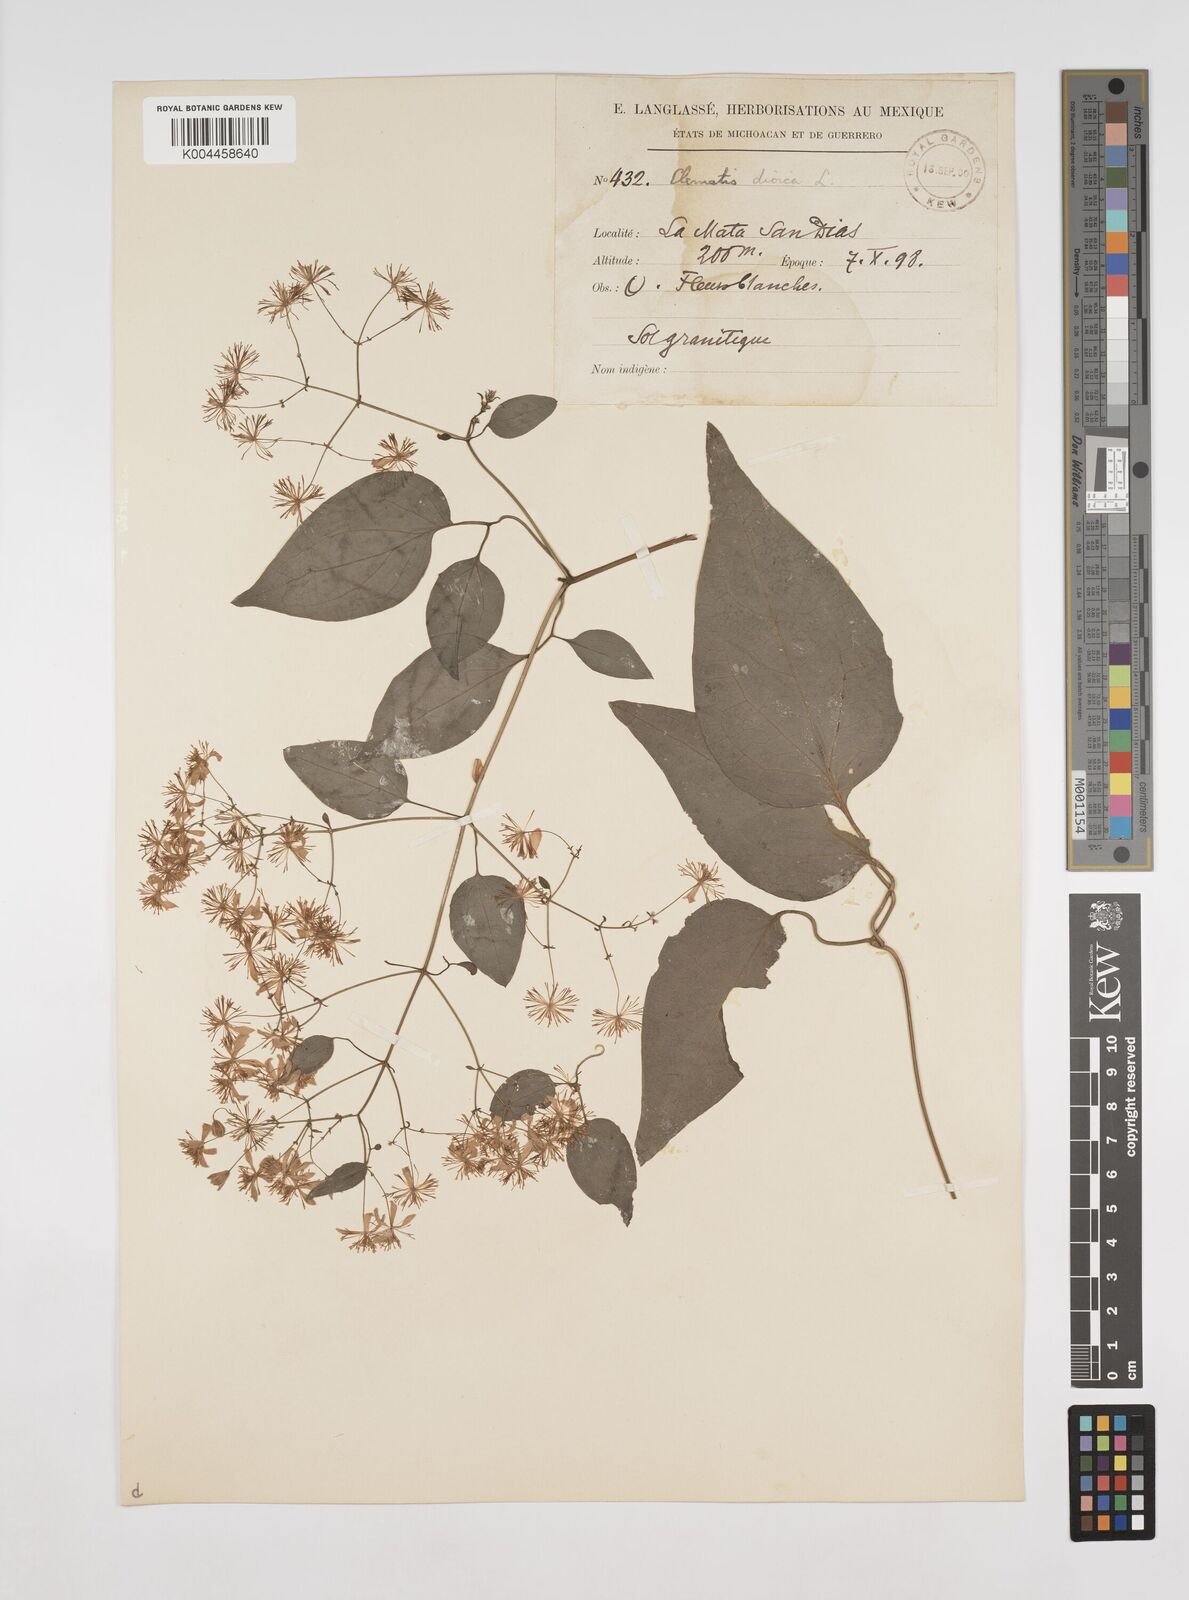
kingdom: Plantae
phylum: Tracheophyta
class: Magnoliopsida
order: Ranunculales
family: Ranunculaceae
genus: Clematis
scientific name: Clematis dioica
